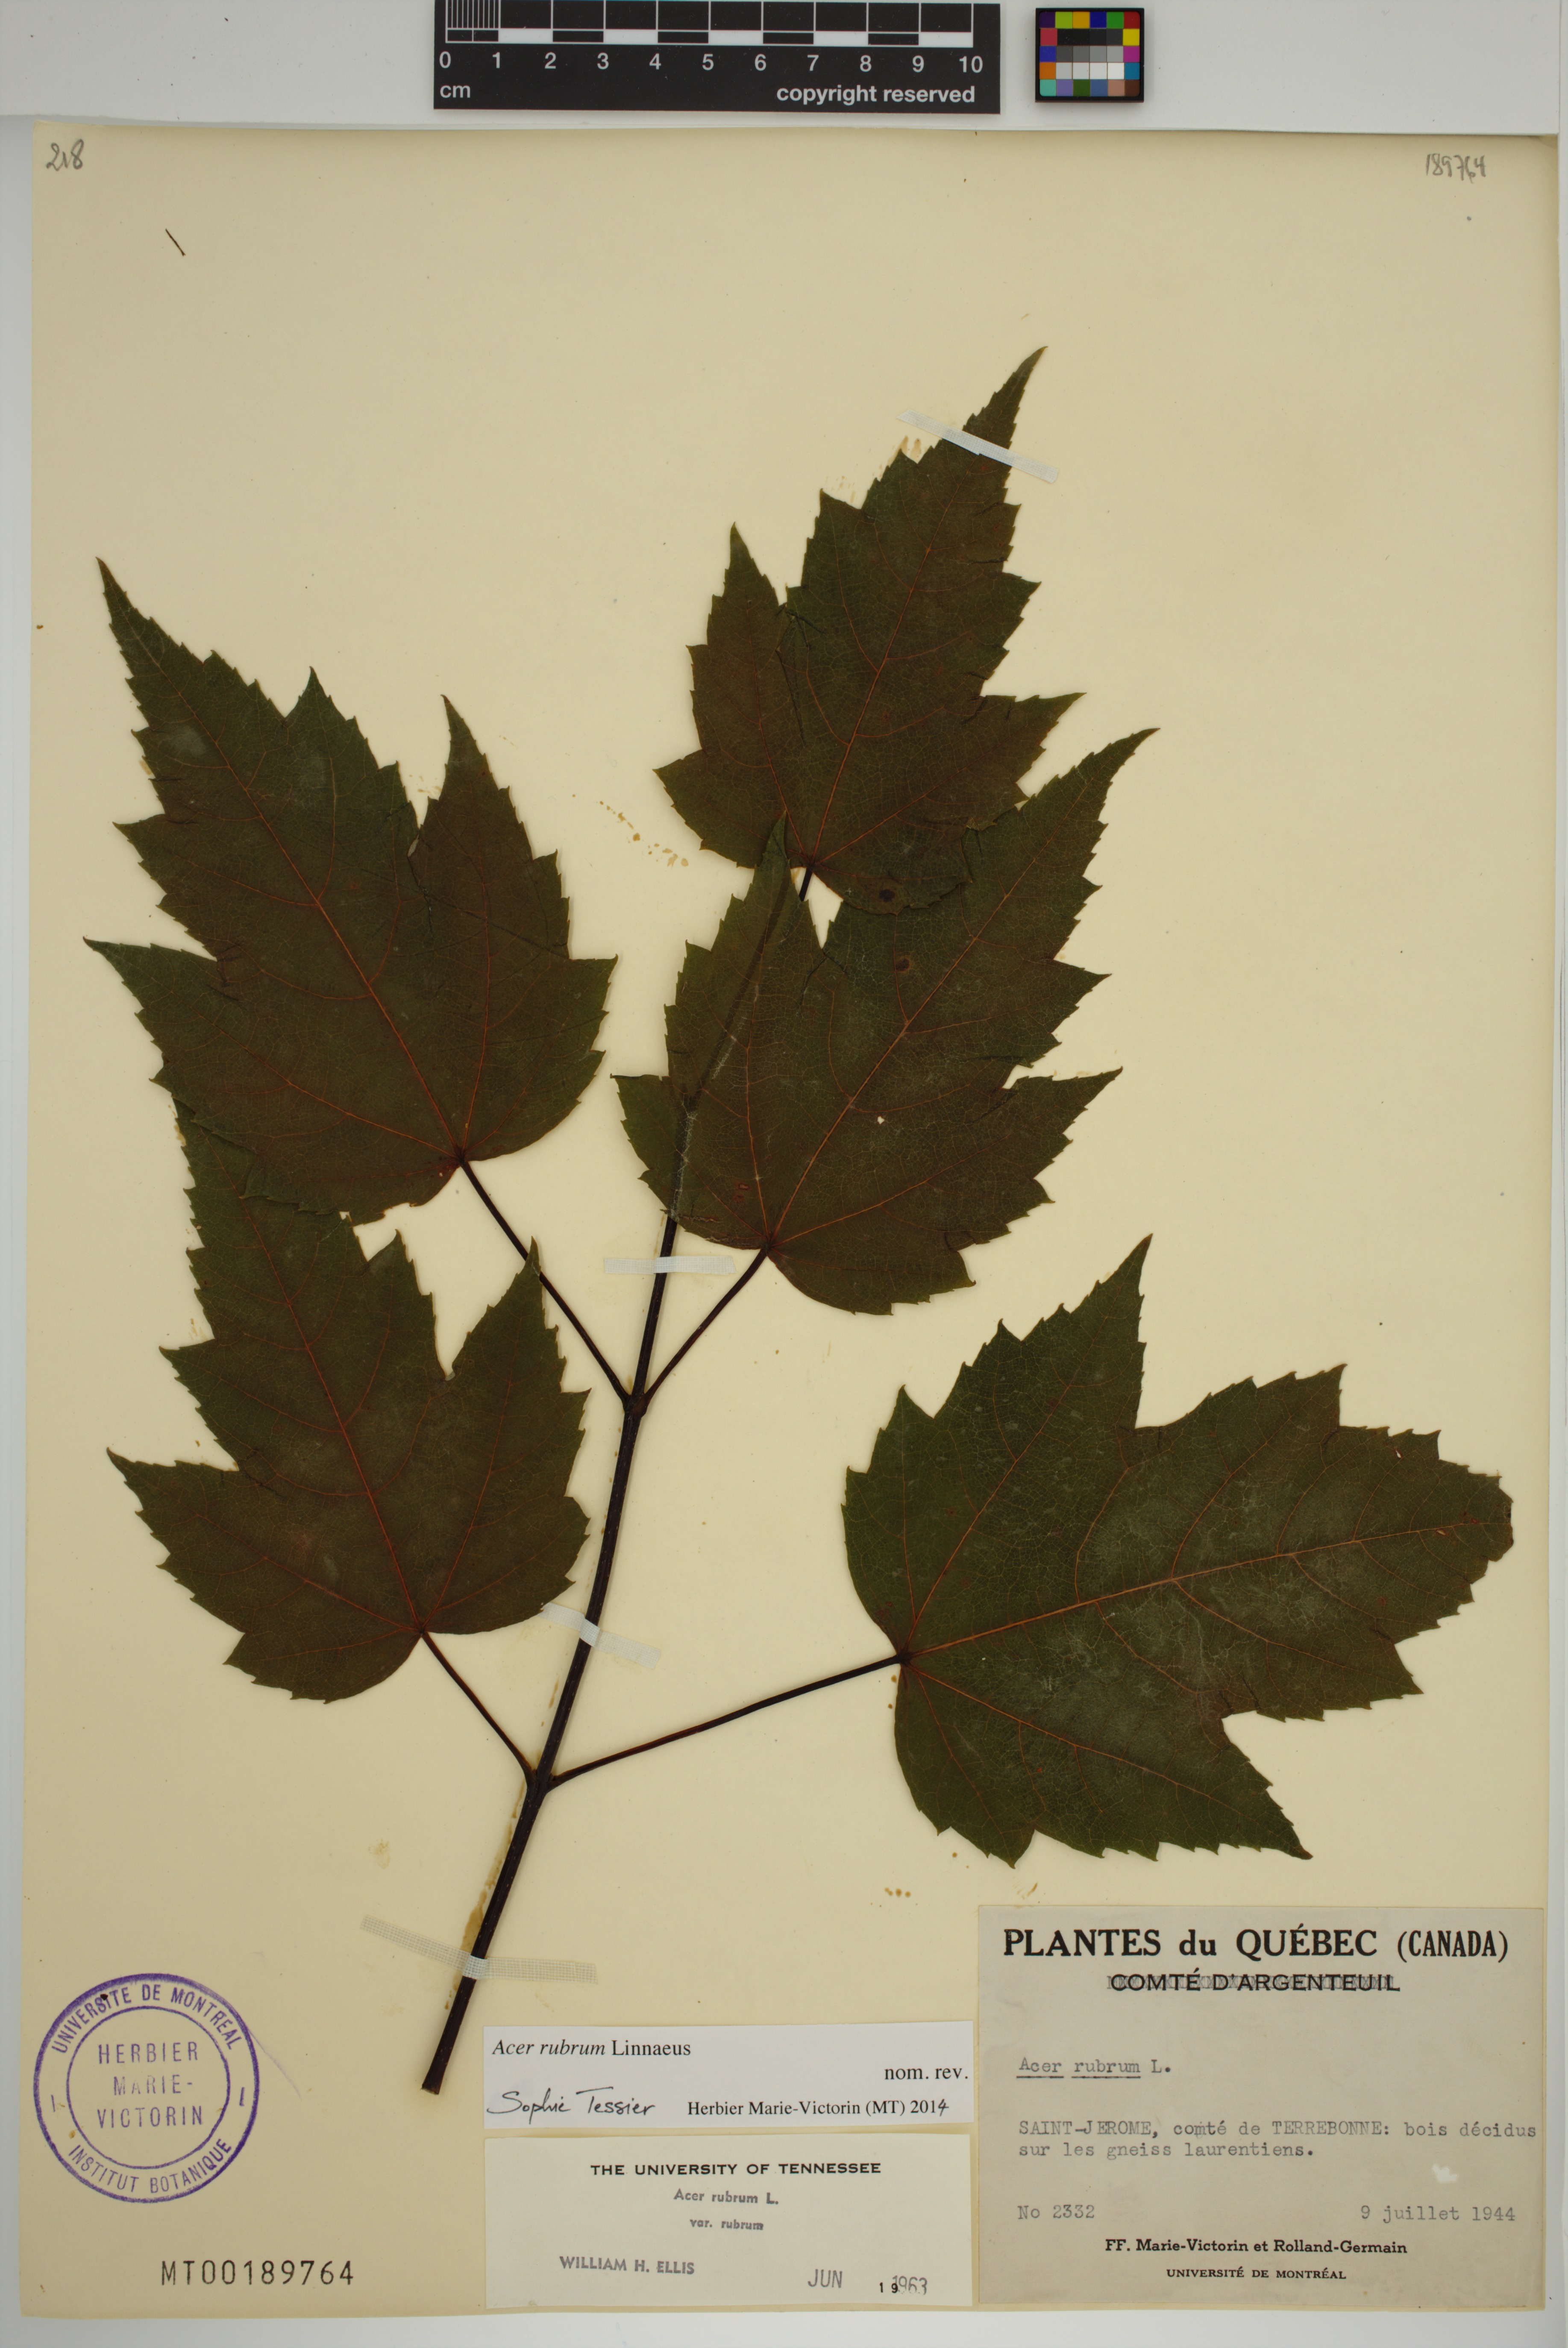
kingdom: Plantae
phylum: Tracheophyta
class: Magnoliopsida
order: Sapindales
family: Sapindaceae
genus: Acer
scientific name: Acer rubrum
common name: Red maple
